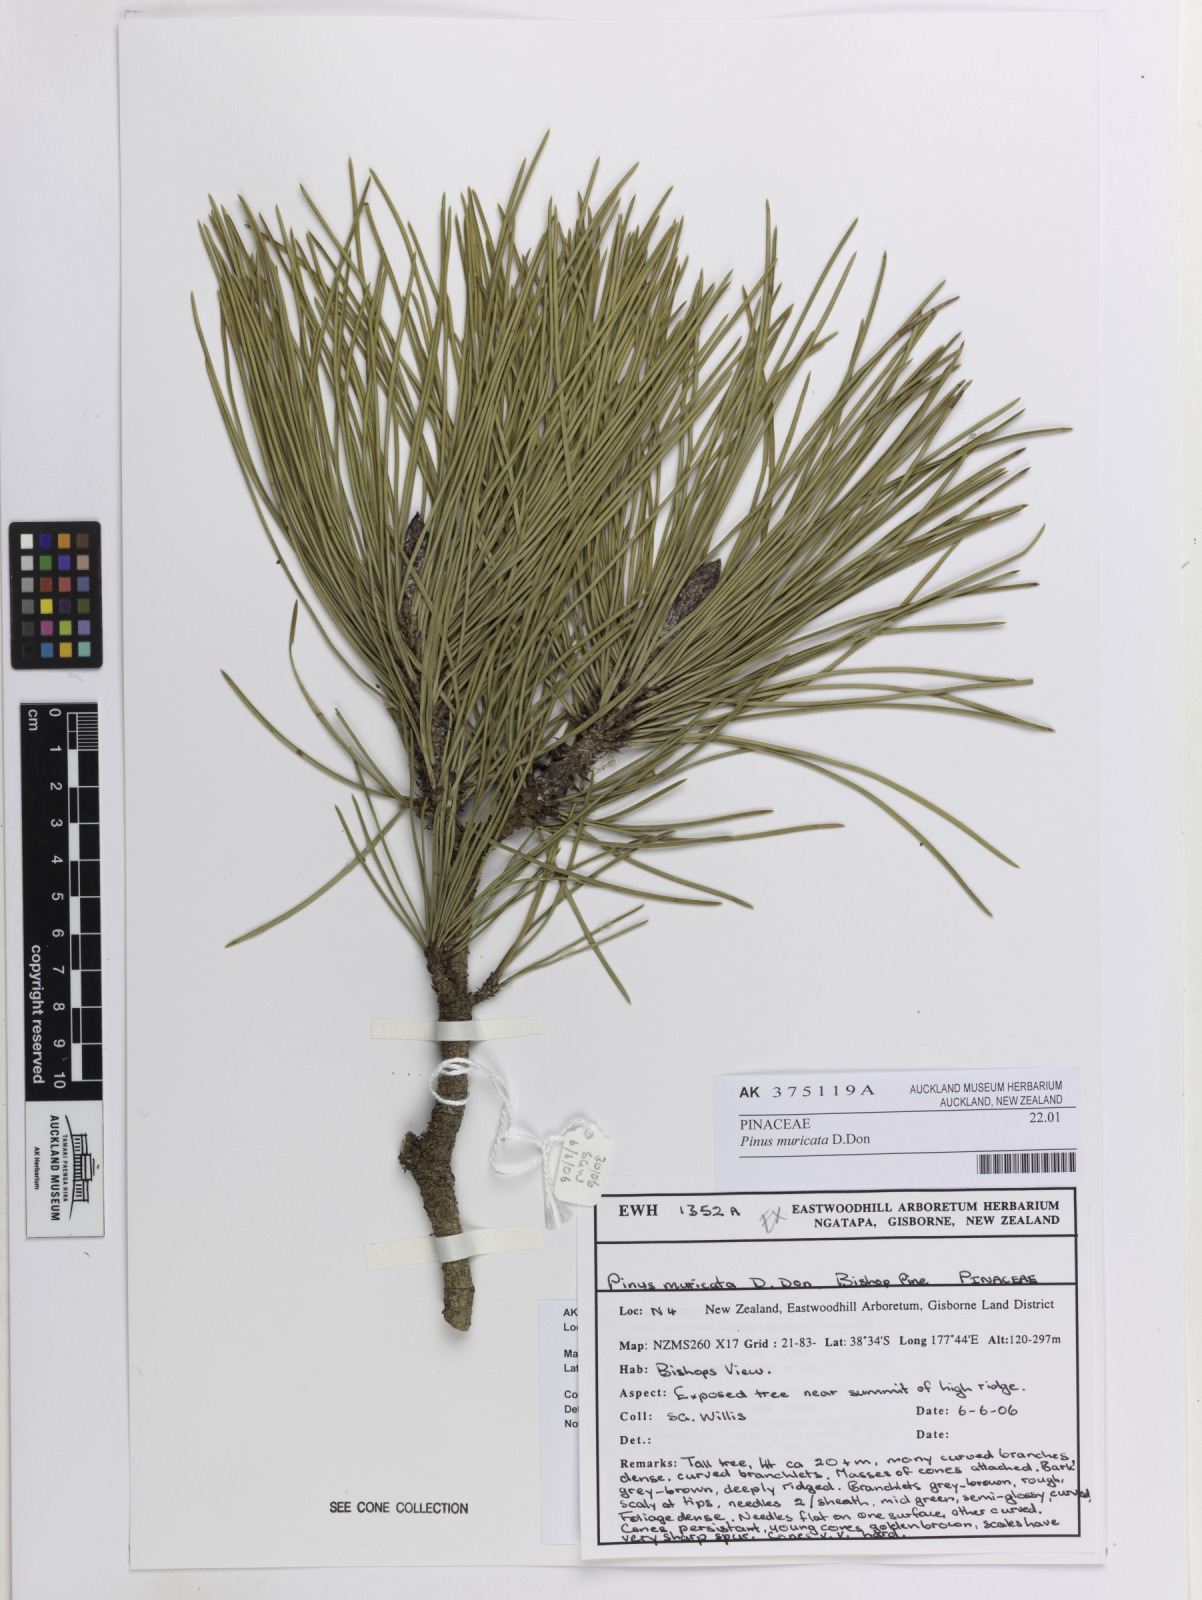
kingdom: Plantae
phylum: Tracheophyta
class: Pinopsida
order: Pinales
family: Pinaceae
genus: Pinus
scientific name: Pinus muricata
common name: Bishop pine
